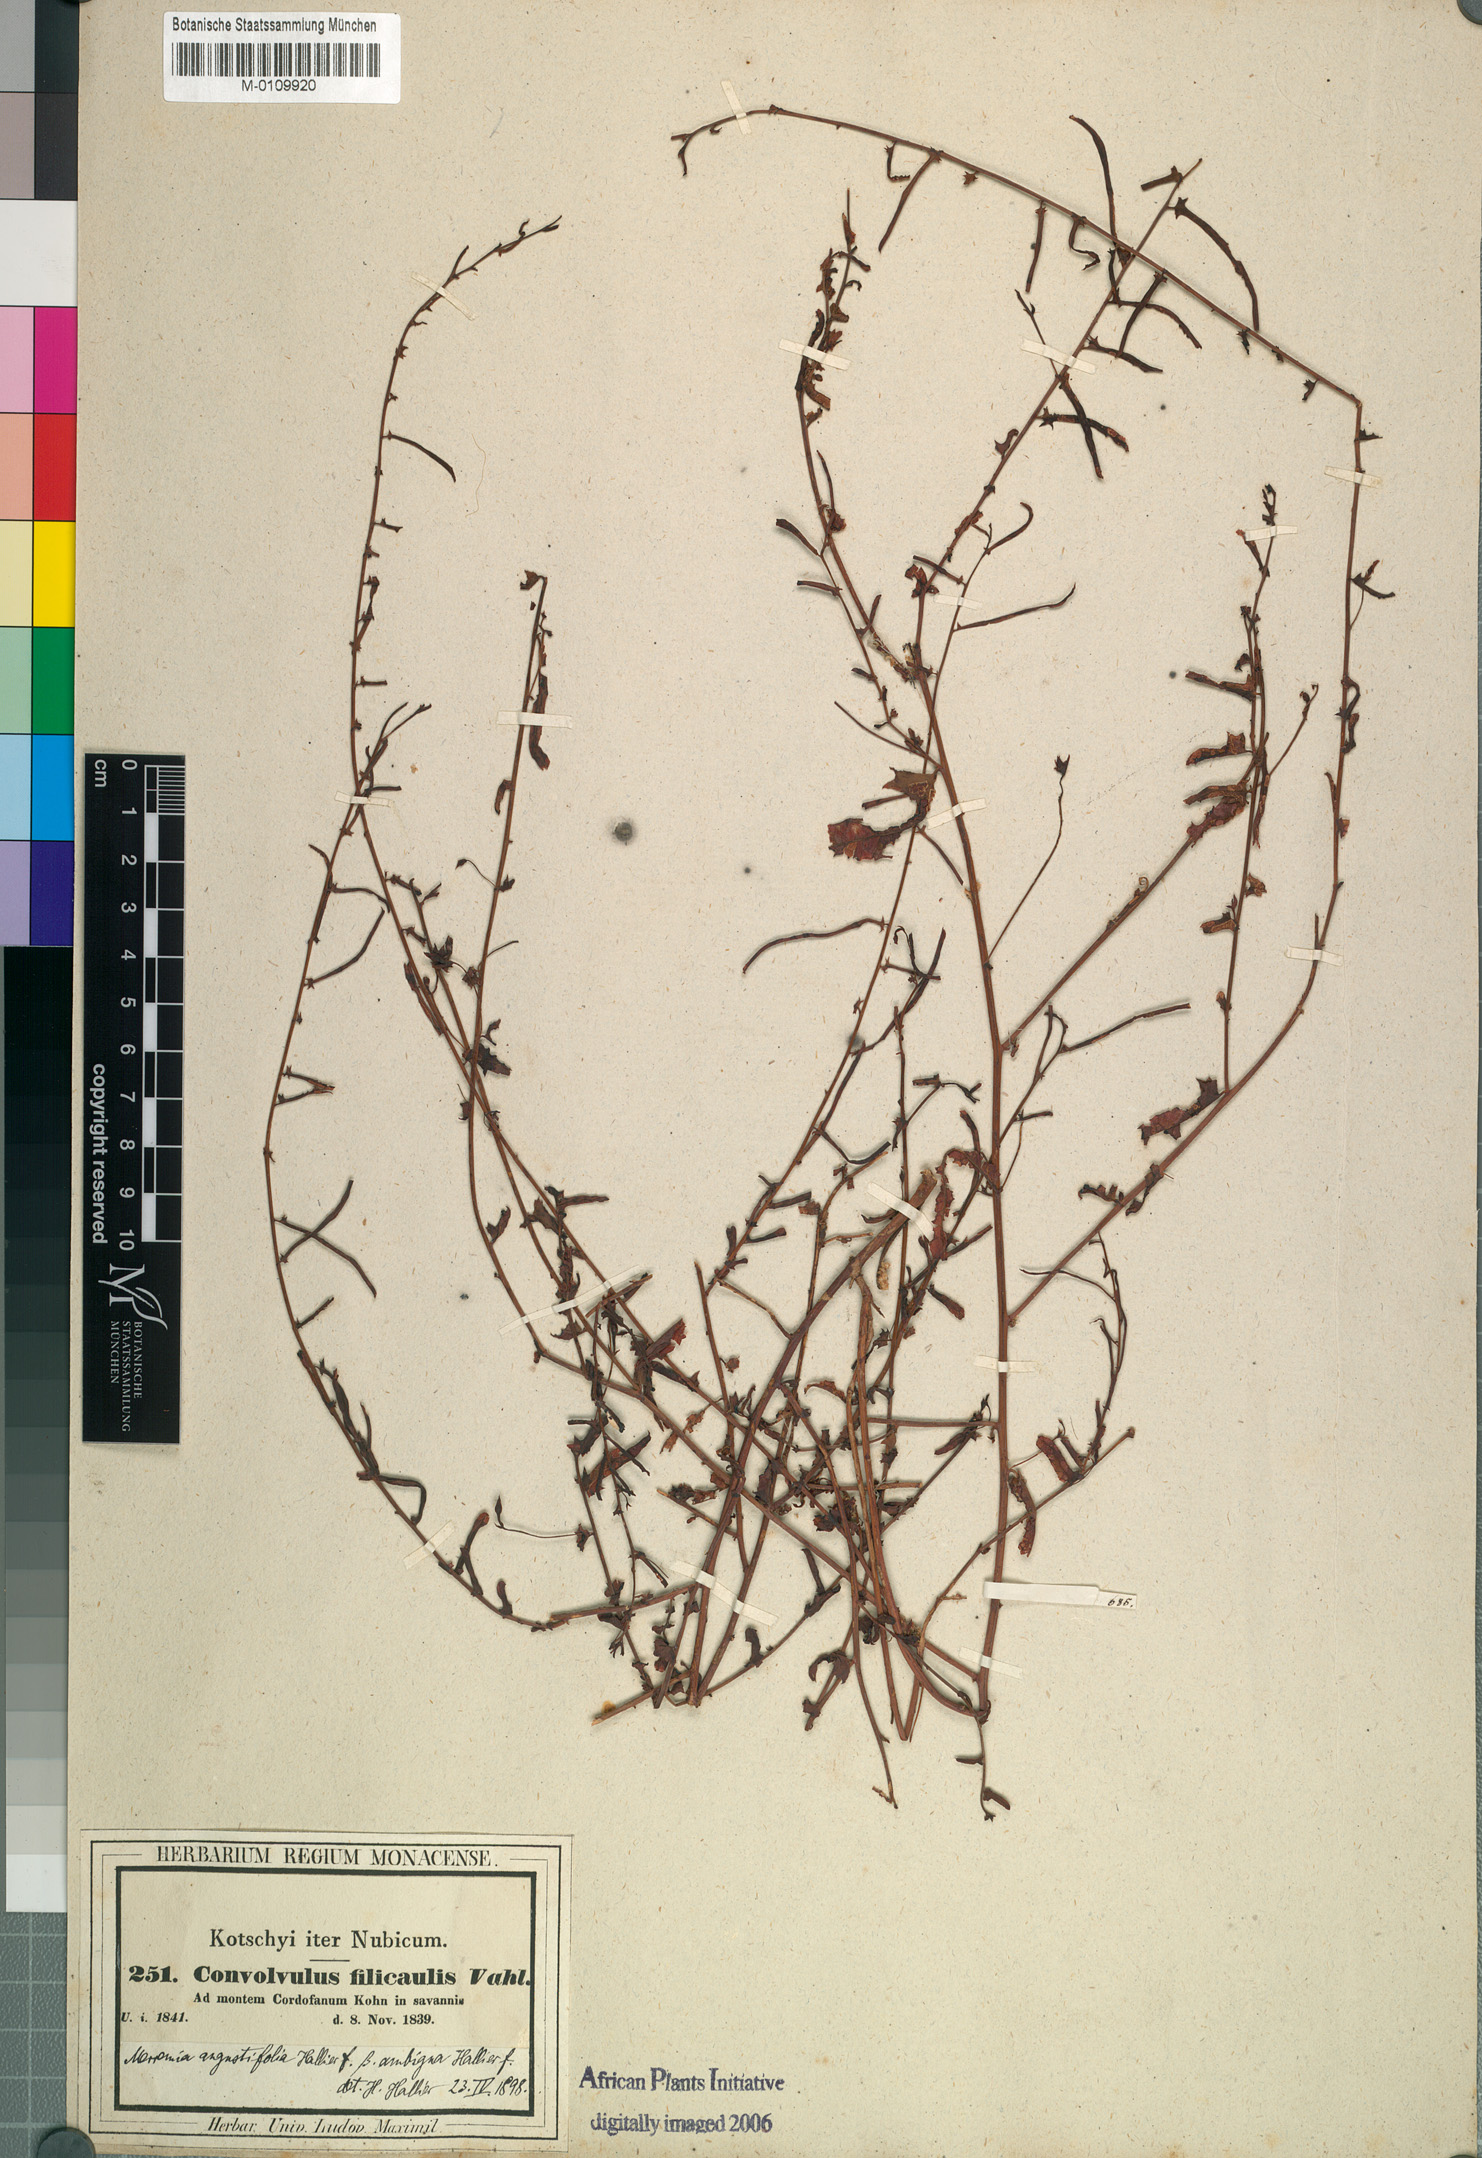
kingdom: Plantae
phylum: Tracheophyta
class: Magnoliopsida
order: Solanales
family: Convolvulaceae
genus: Xenostegia
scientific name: Xenostegia tridentata
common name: African morningvine
